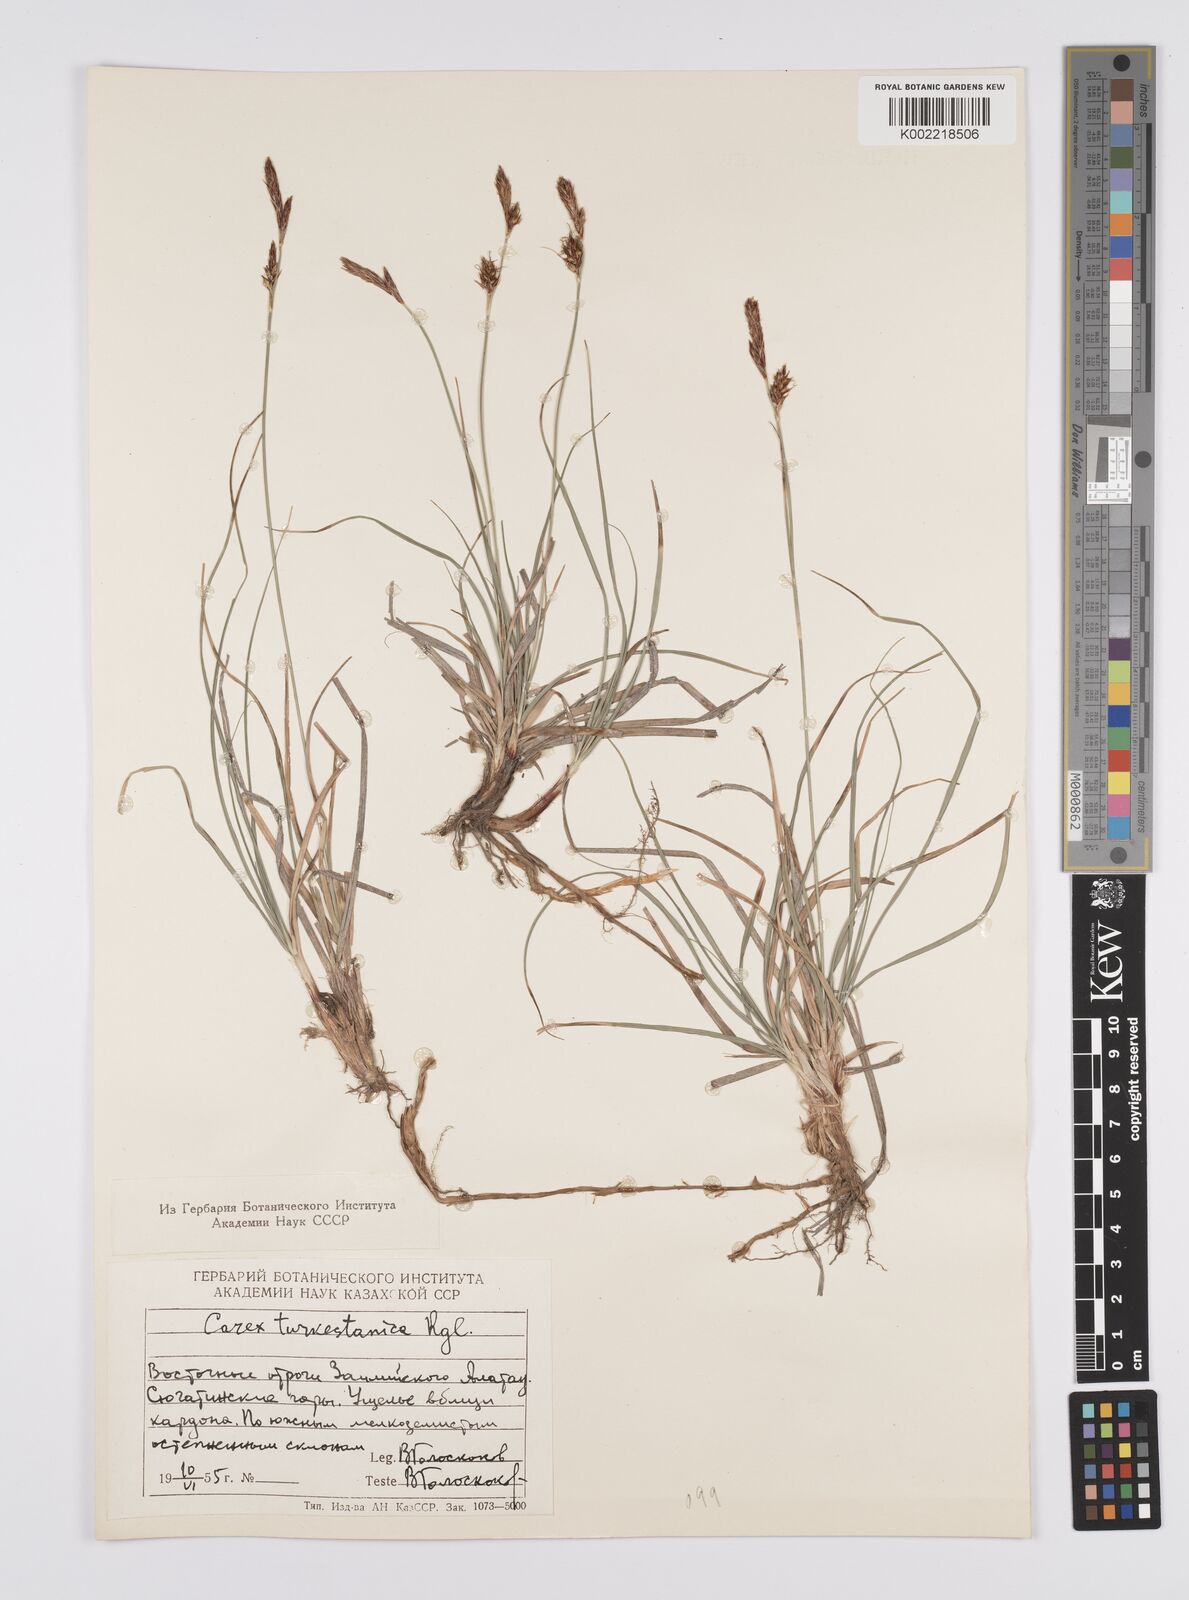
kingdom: Plantae
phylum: Tracheophyta
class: Liliopsida
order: Poales
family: Cyperaceae
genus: Carex
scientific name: Carex liparocarpos
